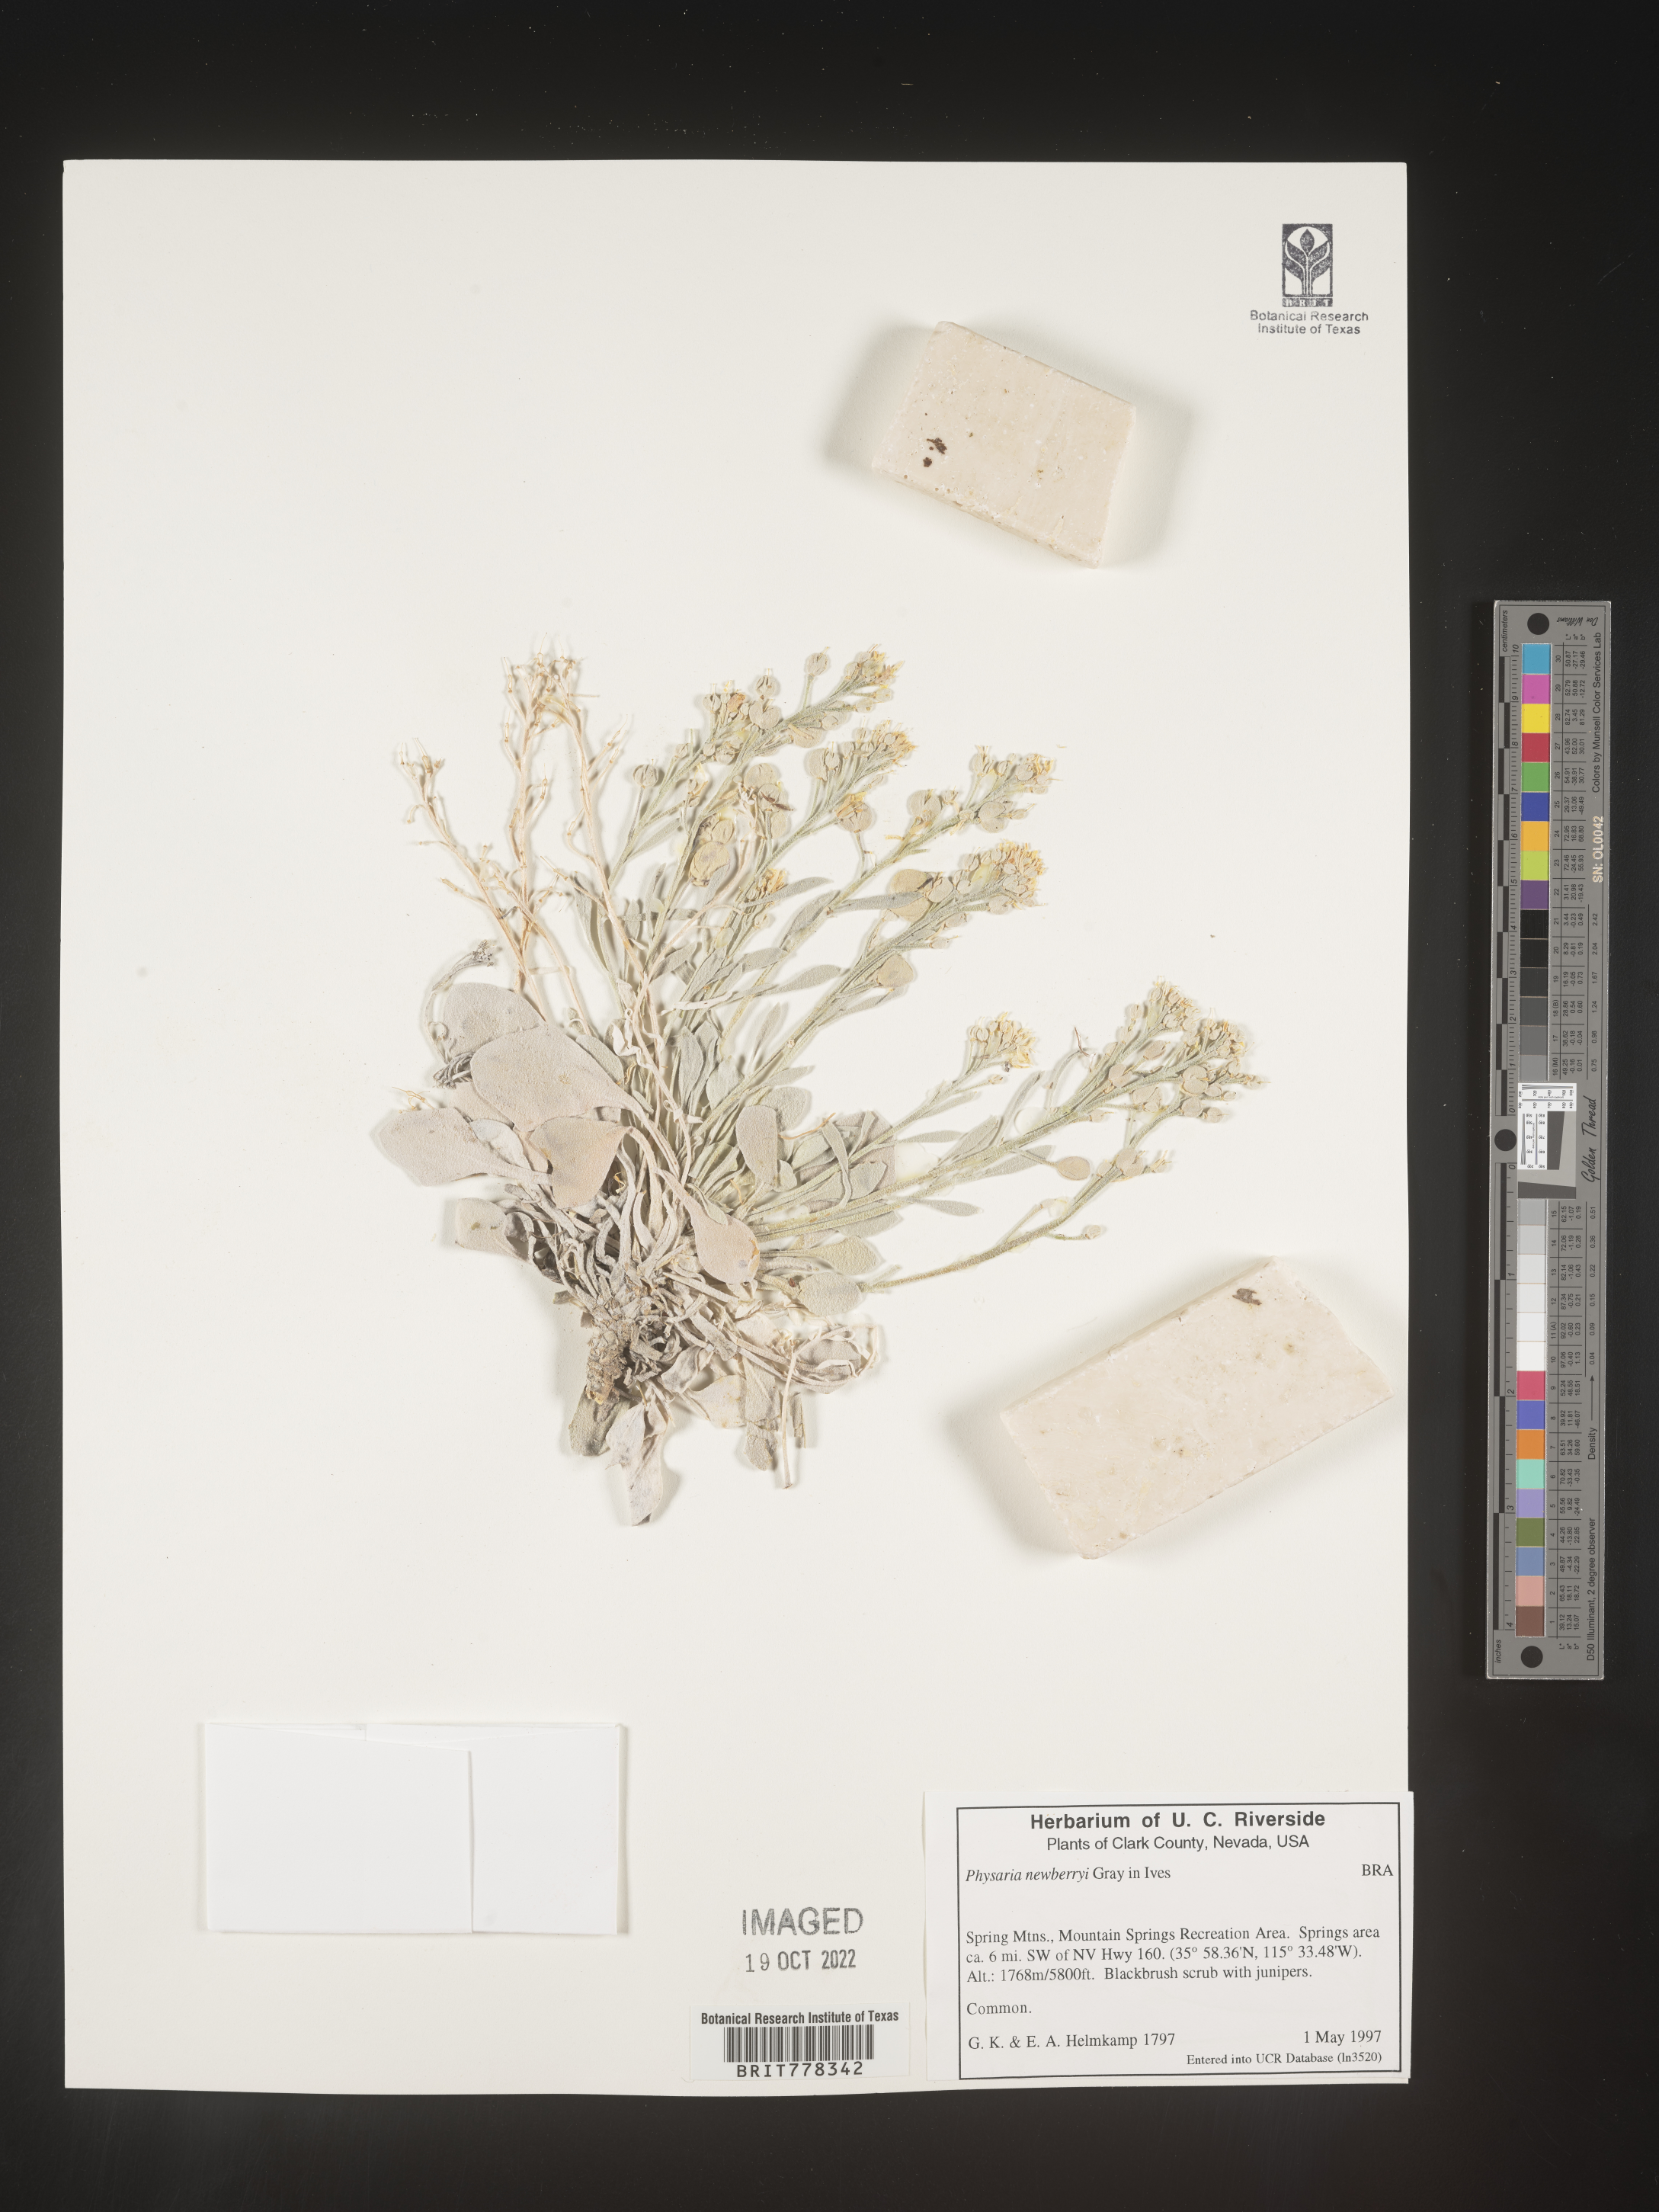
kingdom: Plantae
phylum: Tracheophyta
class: Magnoliopsida
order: Brassicales
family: Brassicaceae
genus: Physaria
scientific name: Physaria
